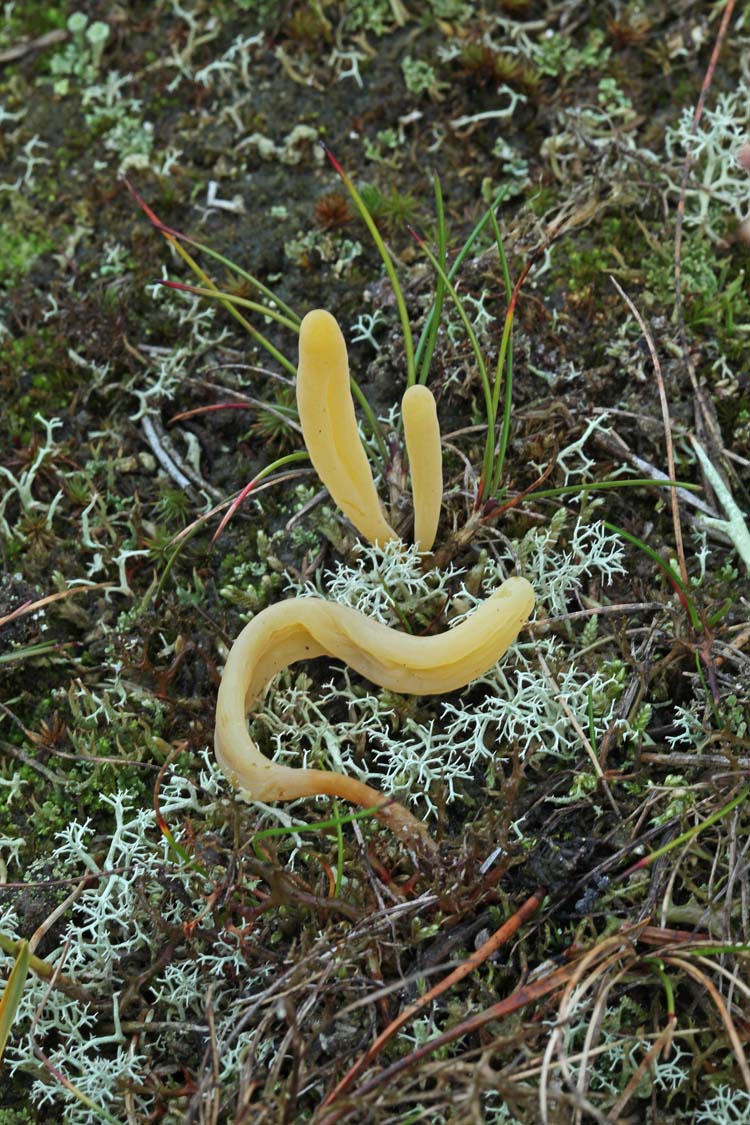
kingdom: Fungi
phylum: Basidiomycota
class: Agaricomycetes
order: Agaricales
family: Clavariaceae
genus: Clavaria
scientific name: Clavaria argillacea
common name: lerfarvet køllesvamp
